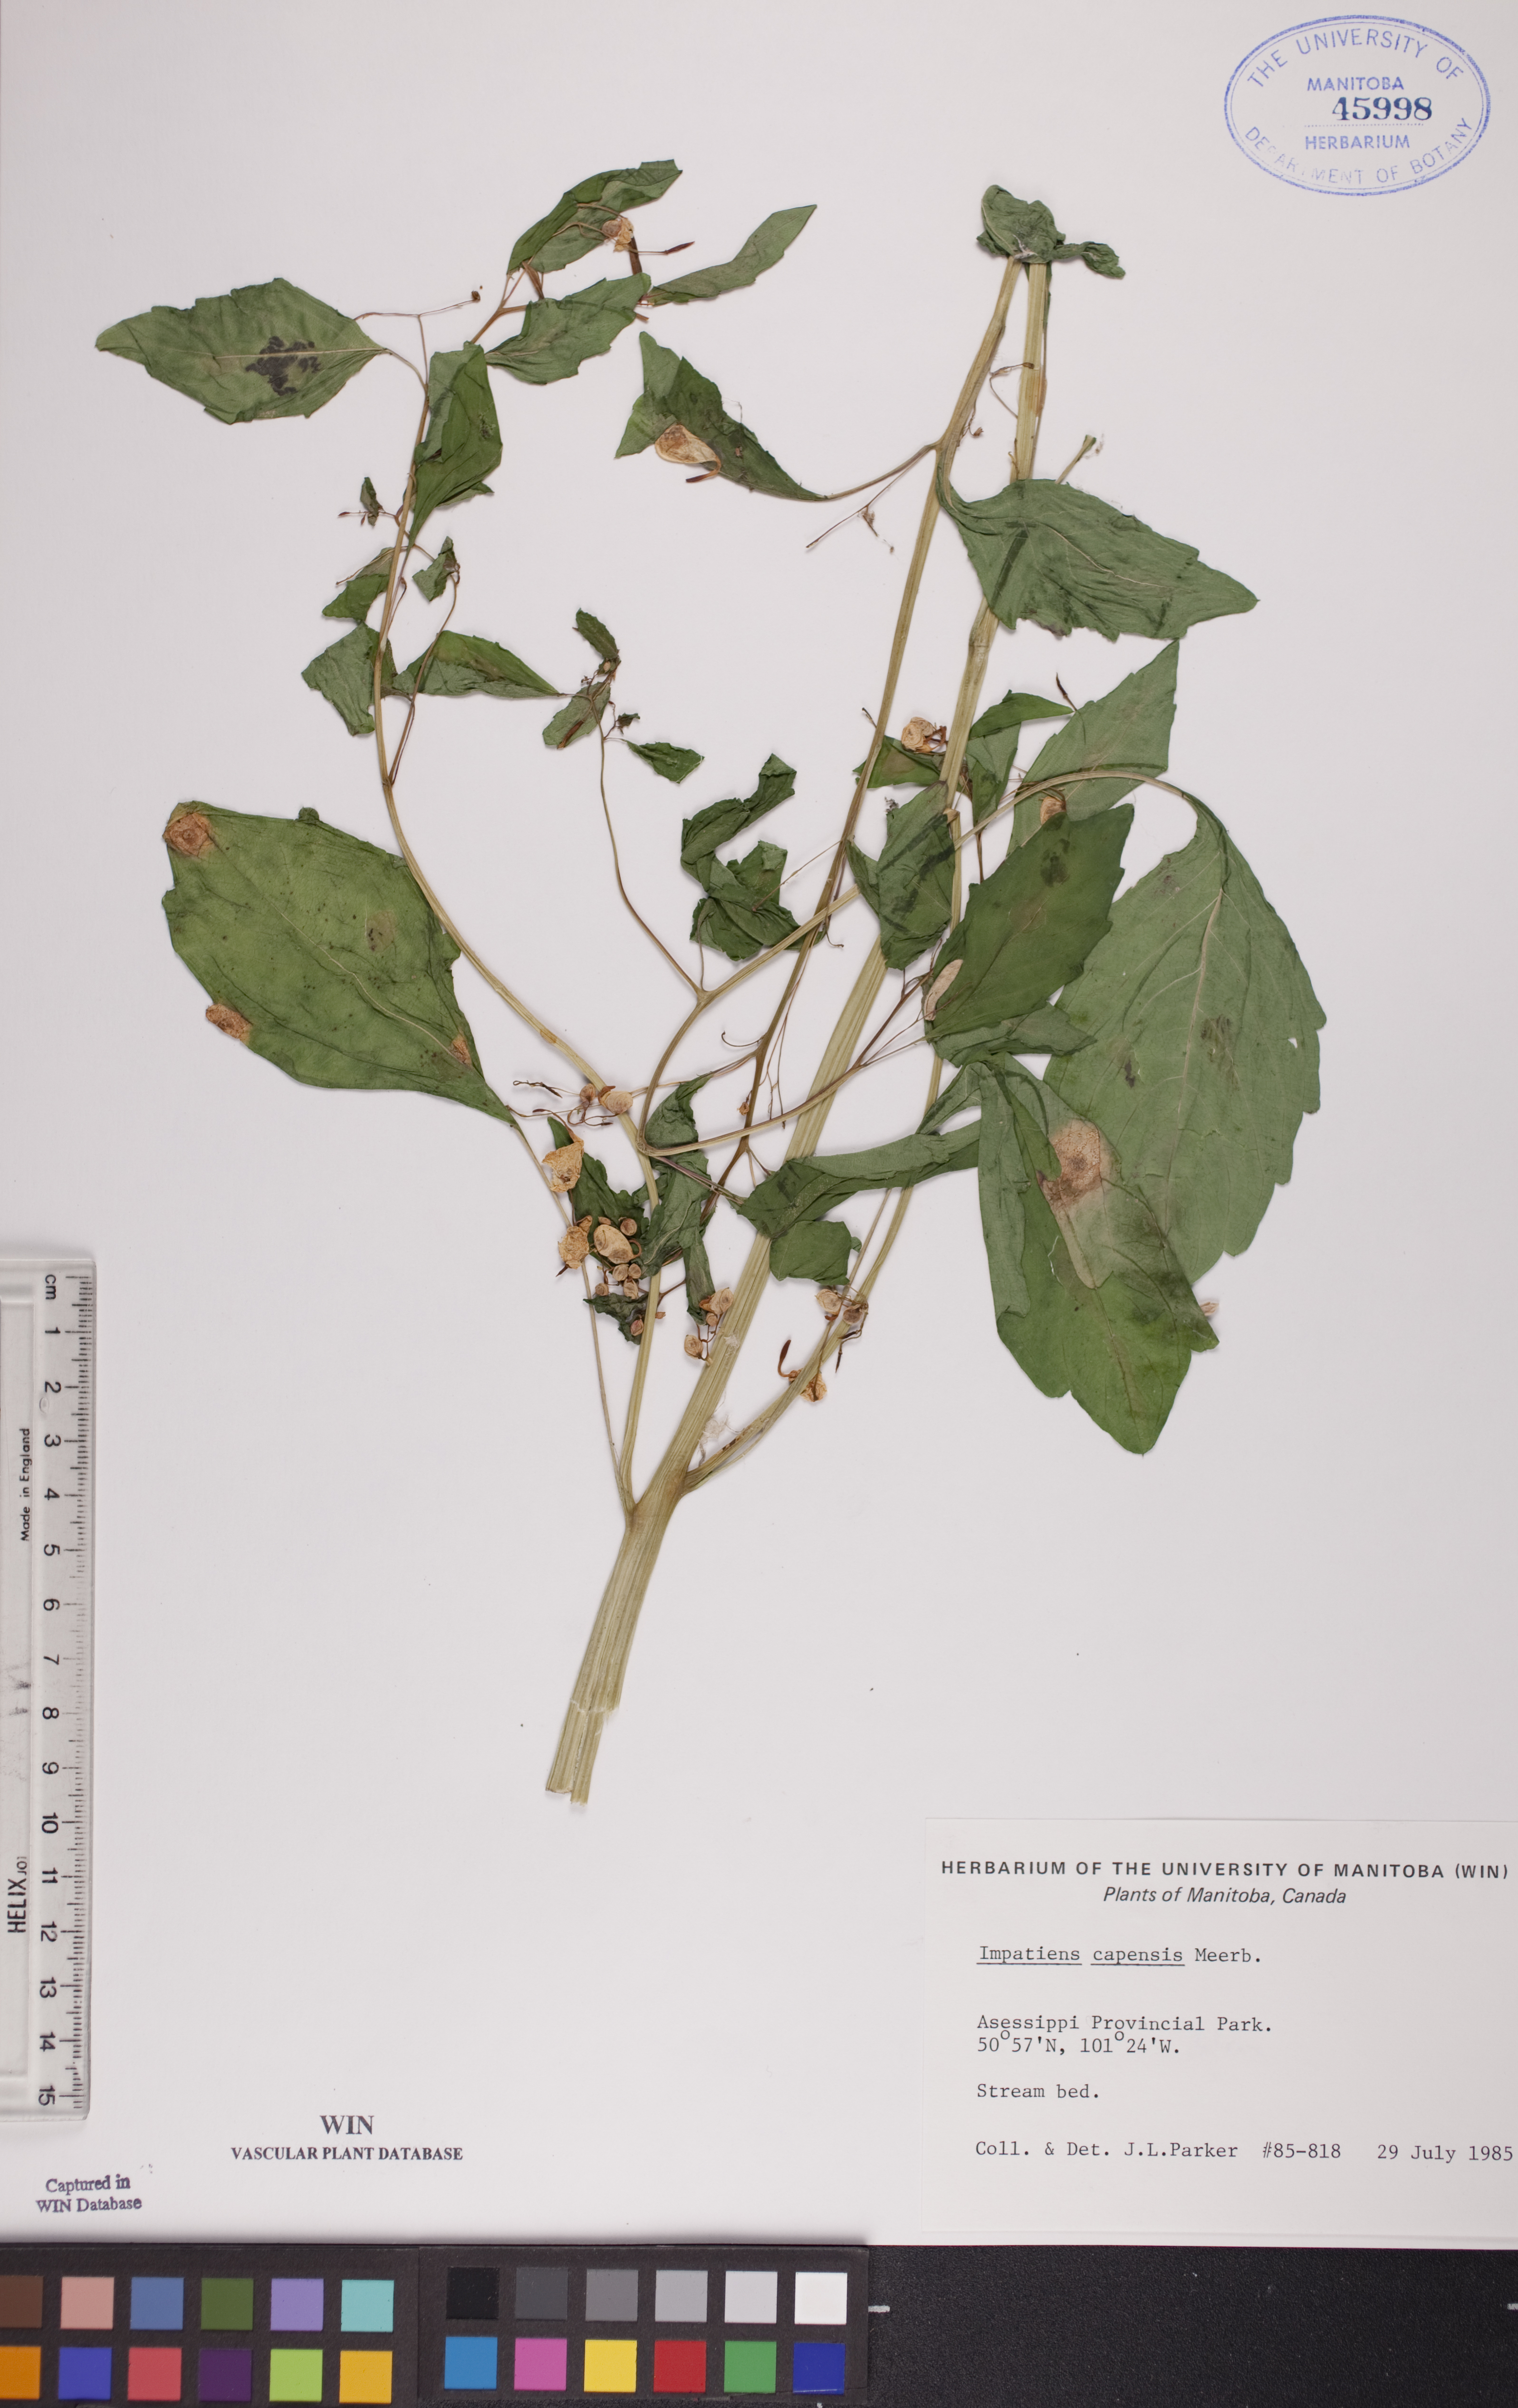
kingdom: Plantae
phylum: Tracheophyta
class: Magnoliopsida
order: Ericales
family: Balsaminaceae
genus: Impatiens
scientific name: Impatiens capensis
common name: Orange balsam
